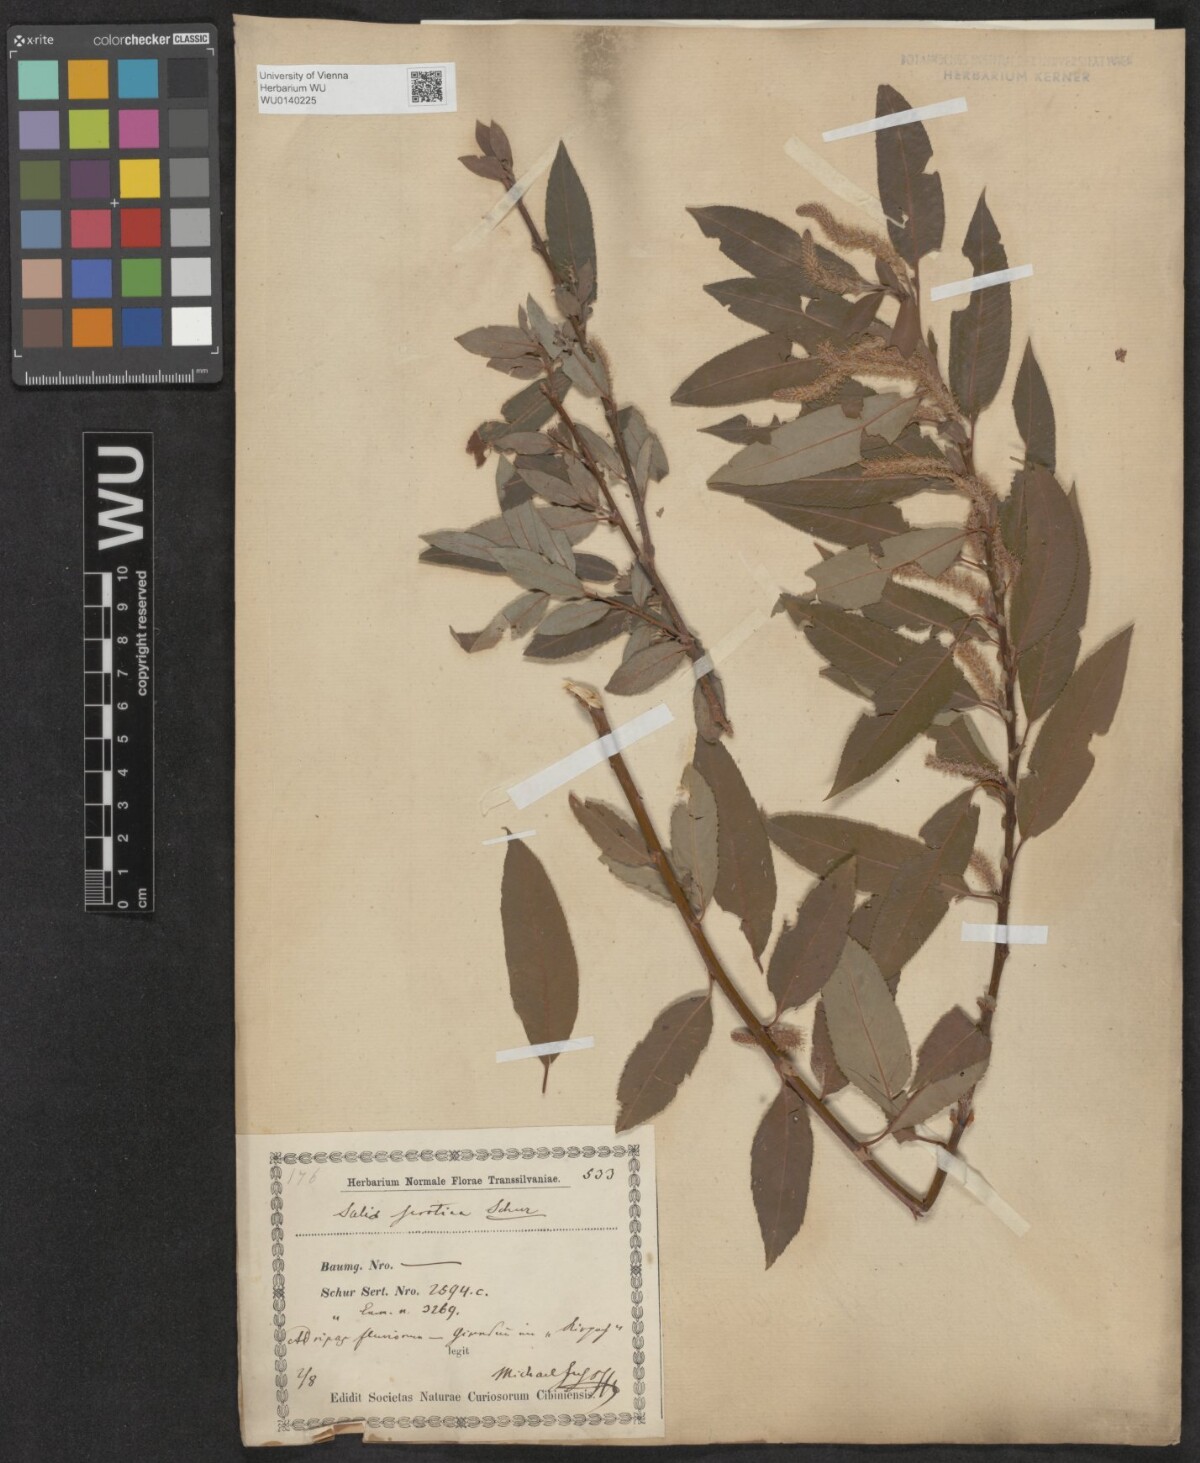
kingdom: Plantae
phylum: Tracheophyta
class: Magnoliopsida
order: Malpighiales
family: Salicaceae
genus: Salix
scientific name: Salix triandra
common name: Almond willow
